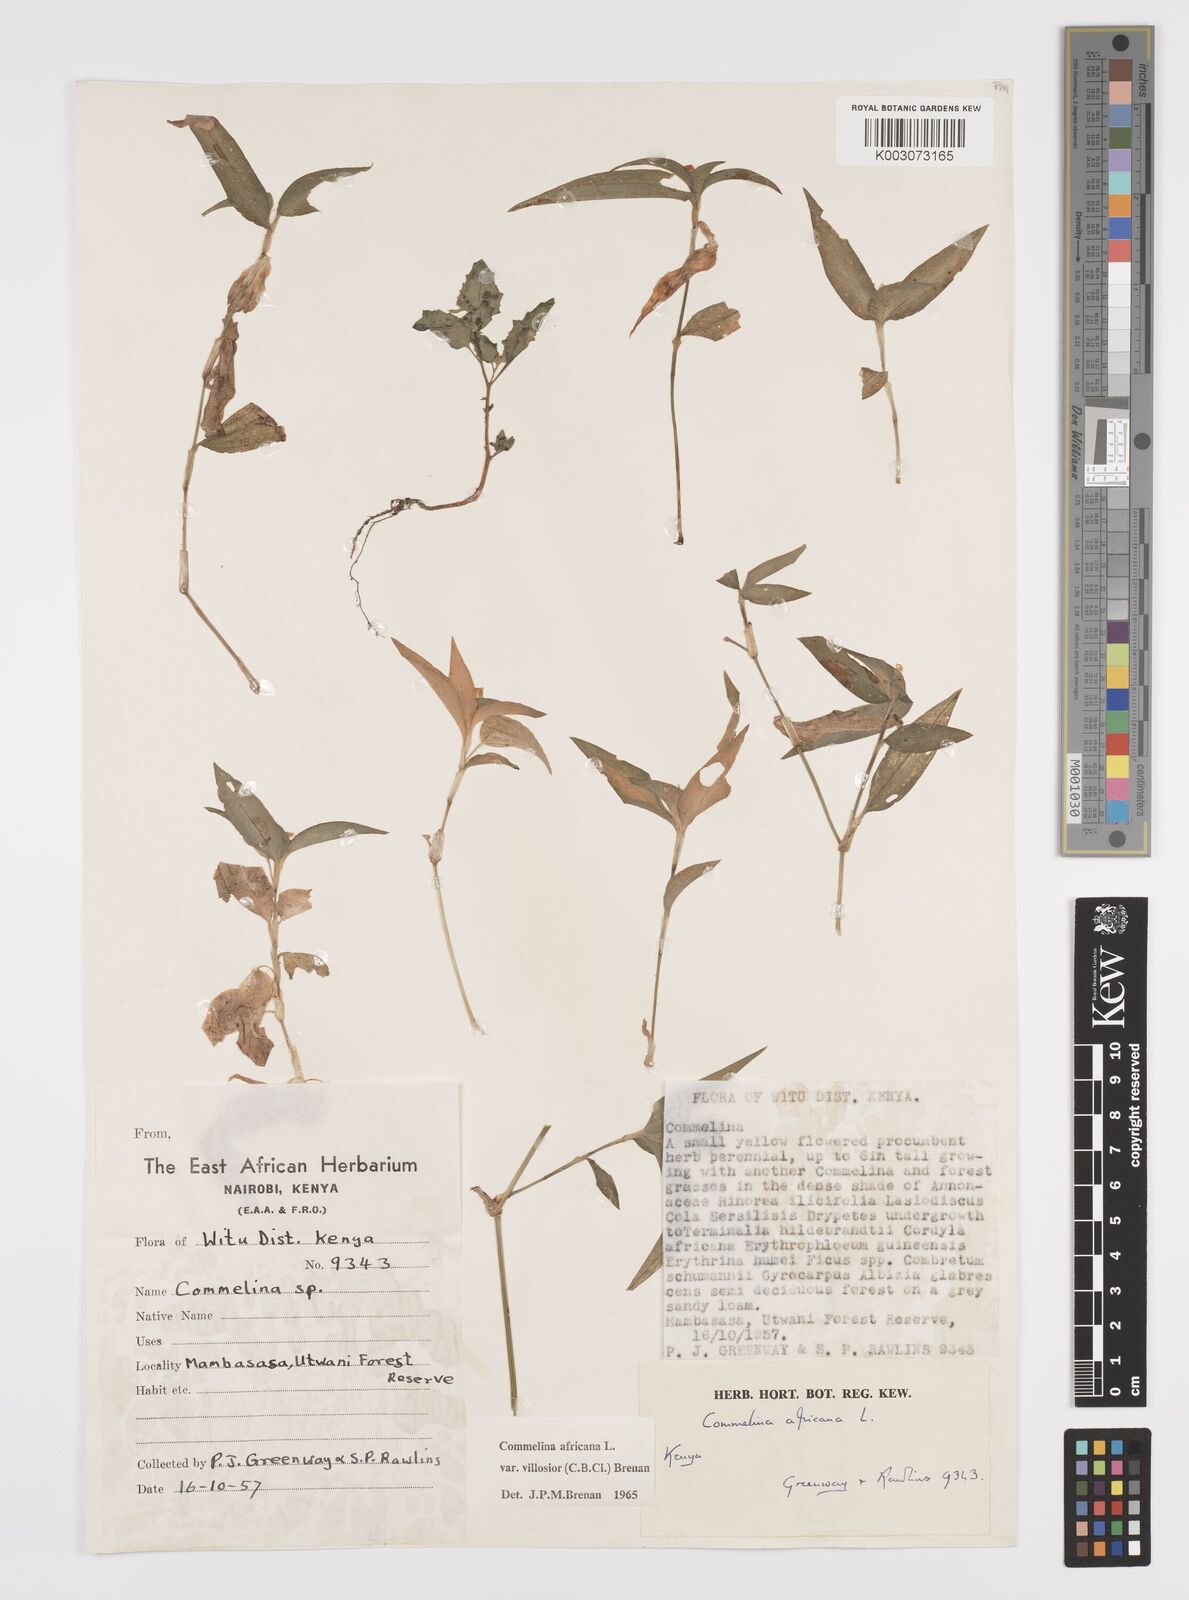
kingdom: Plantae
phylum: Tracheophyta
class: Liliopsida
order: Commelinales
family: Commelinaceae
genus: Commelina
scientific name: Commelina africana
